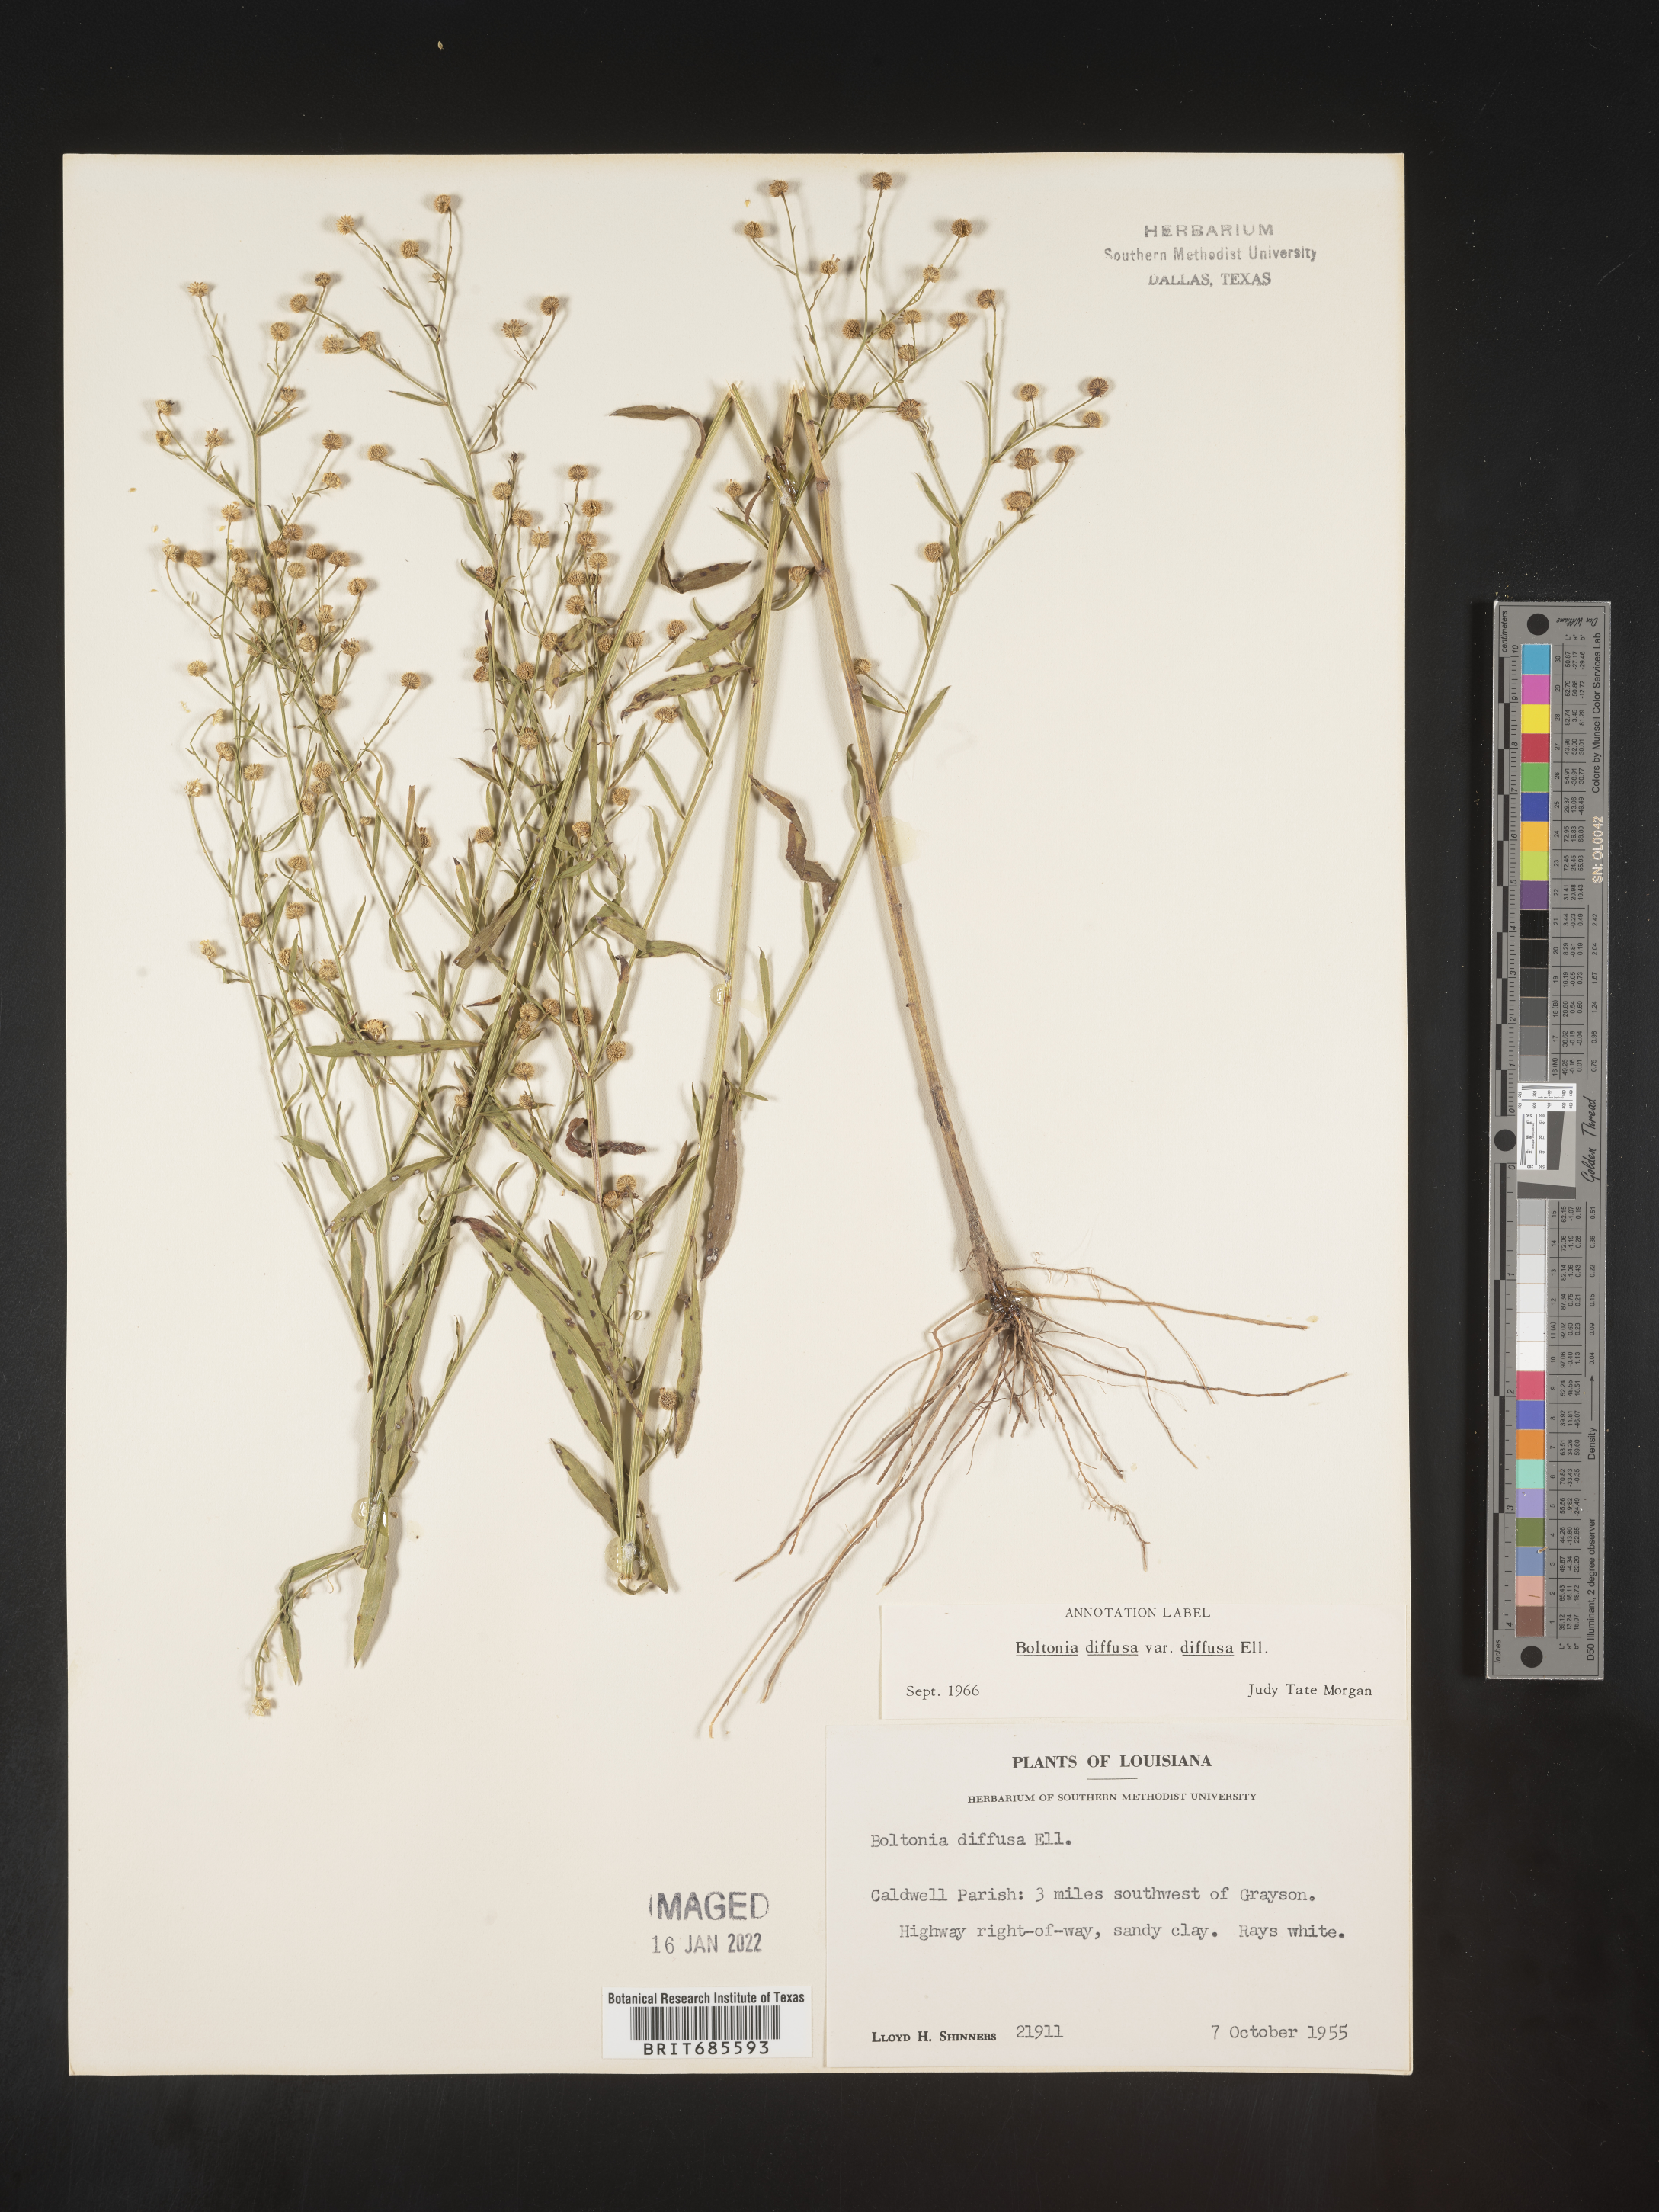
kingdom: Plantae
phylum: Tracheophyta
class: Magnoliopsida
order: Asterales
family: Asteraceae
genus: Boltonia
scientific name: Boltonia diffusa
